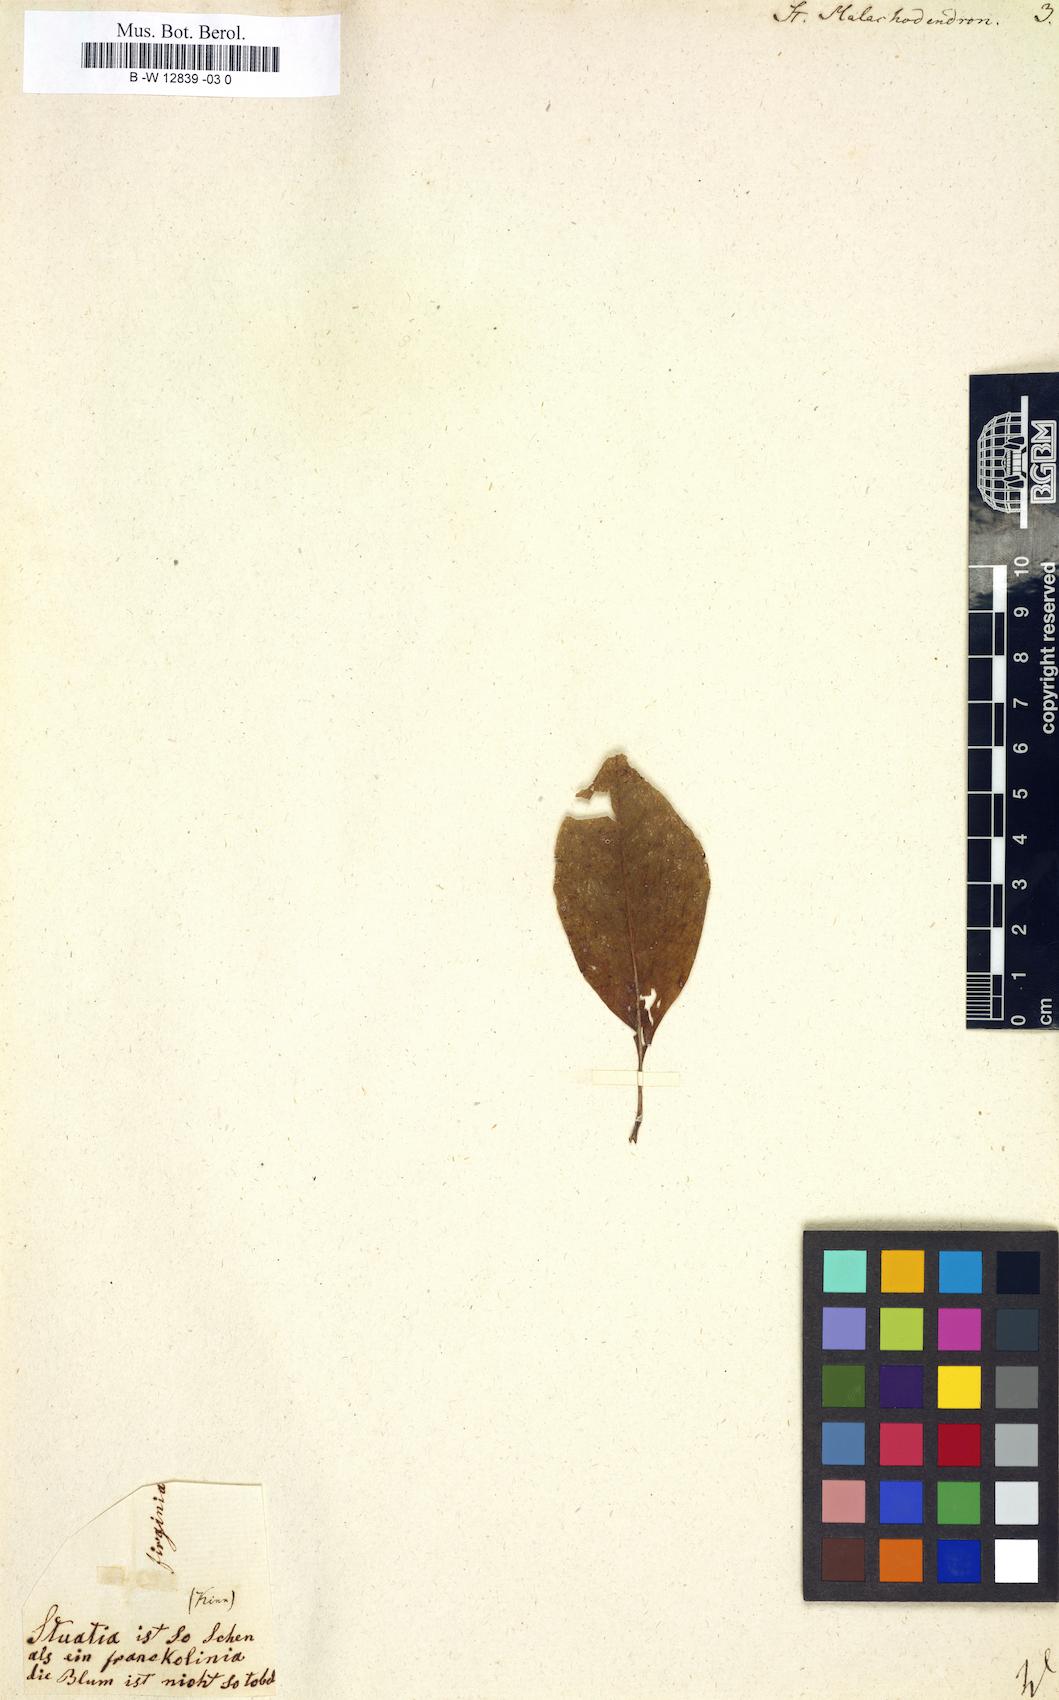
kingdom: Plantae
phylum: Tracheophyta
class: Magnoliopsida
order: Ericales
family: Theaceae
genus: Stuartia
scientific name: Stuartia
